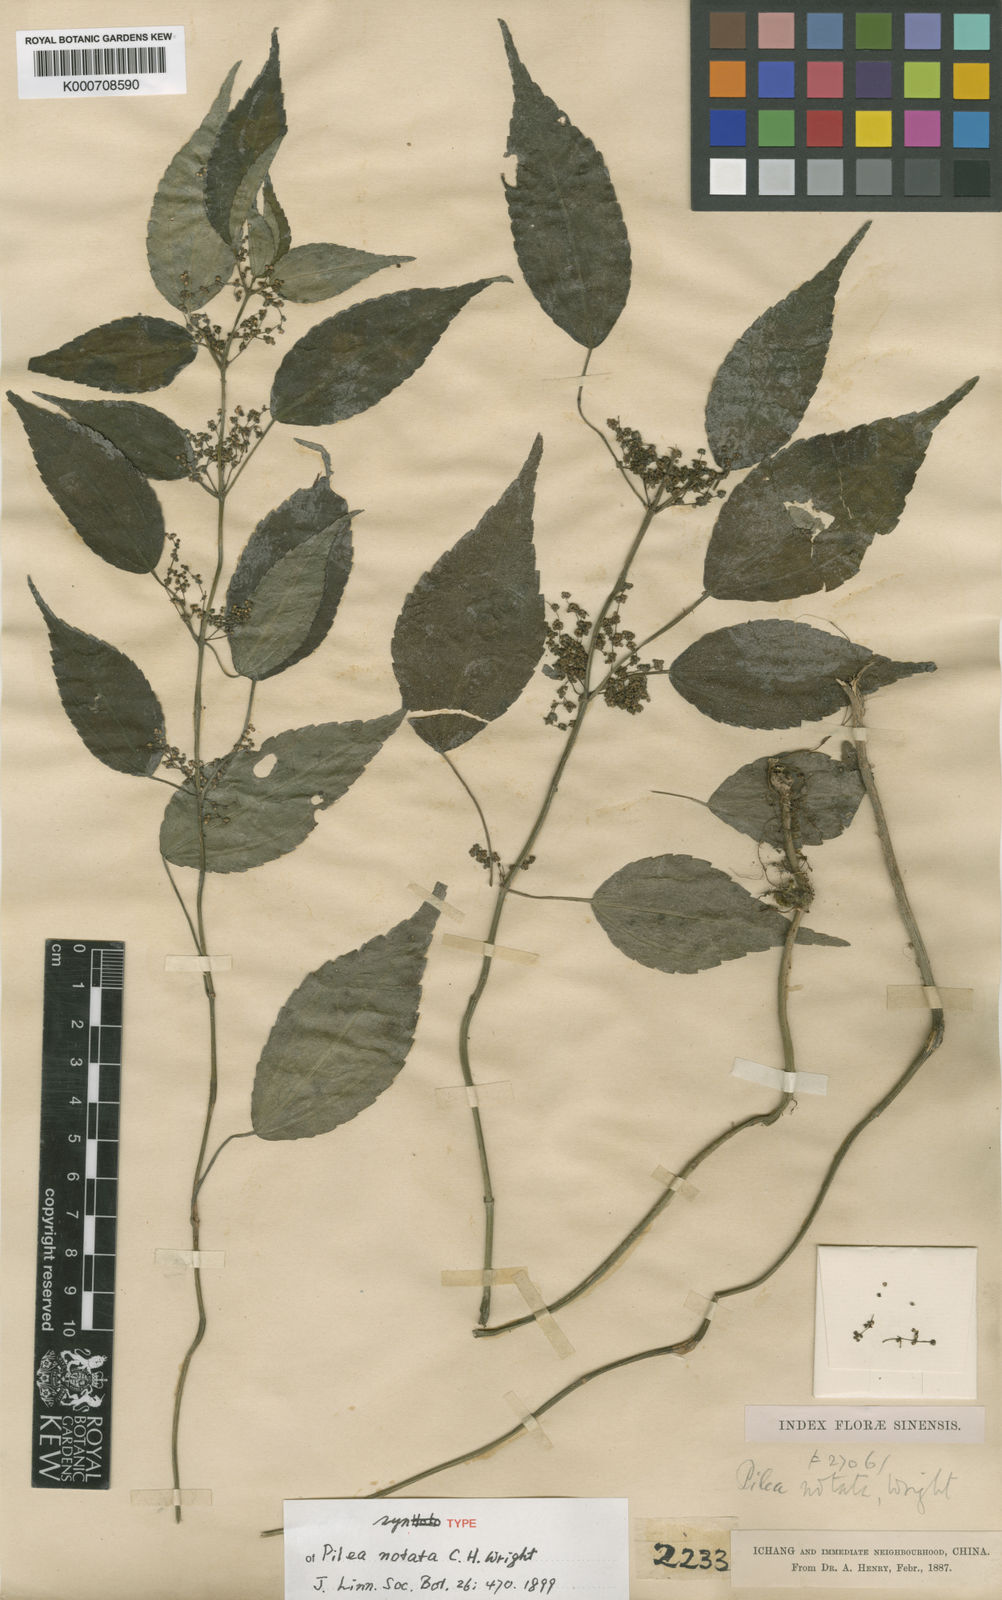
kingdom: Plantae
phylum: Tracheophyta
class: Magnoliopsida
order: Rosales
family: Urticaceae
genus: Pilea
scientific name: Pilea notata
